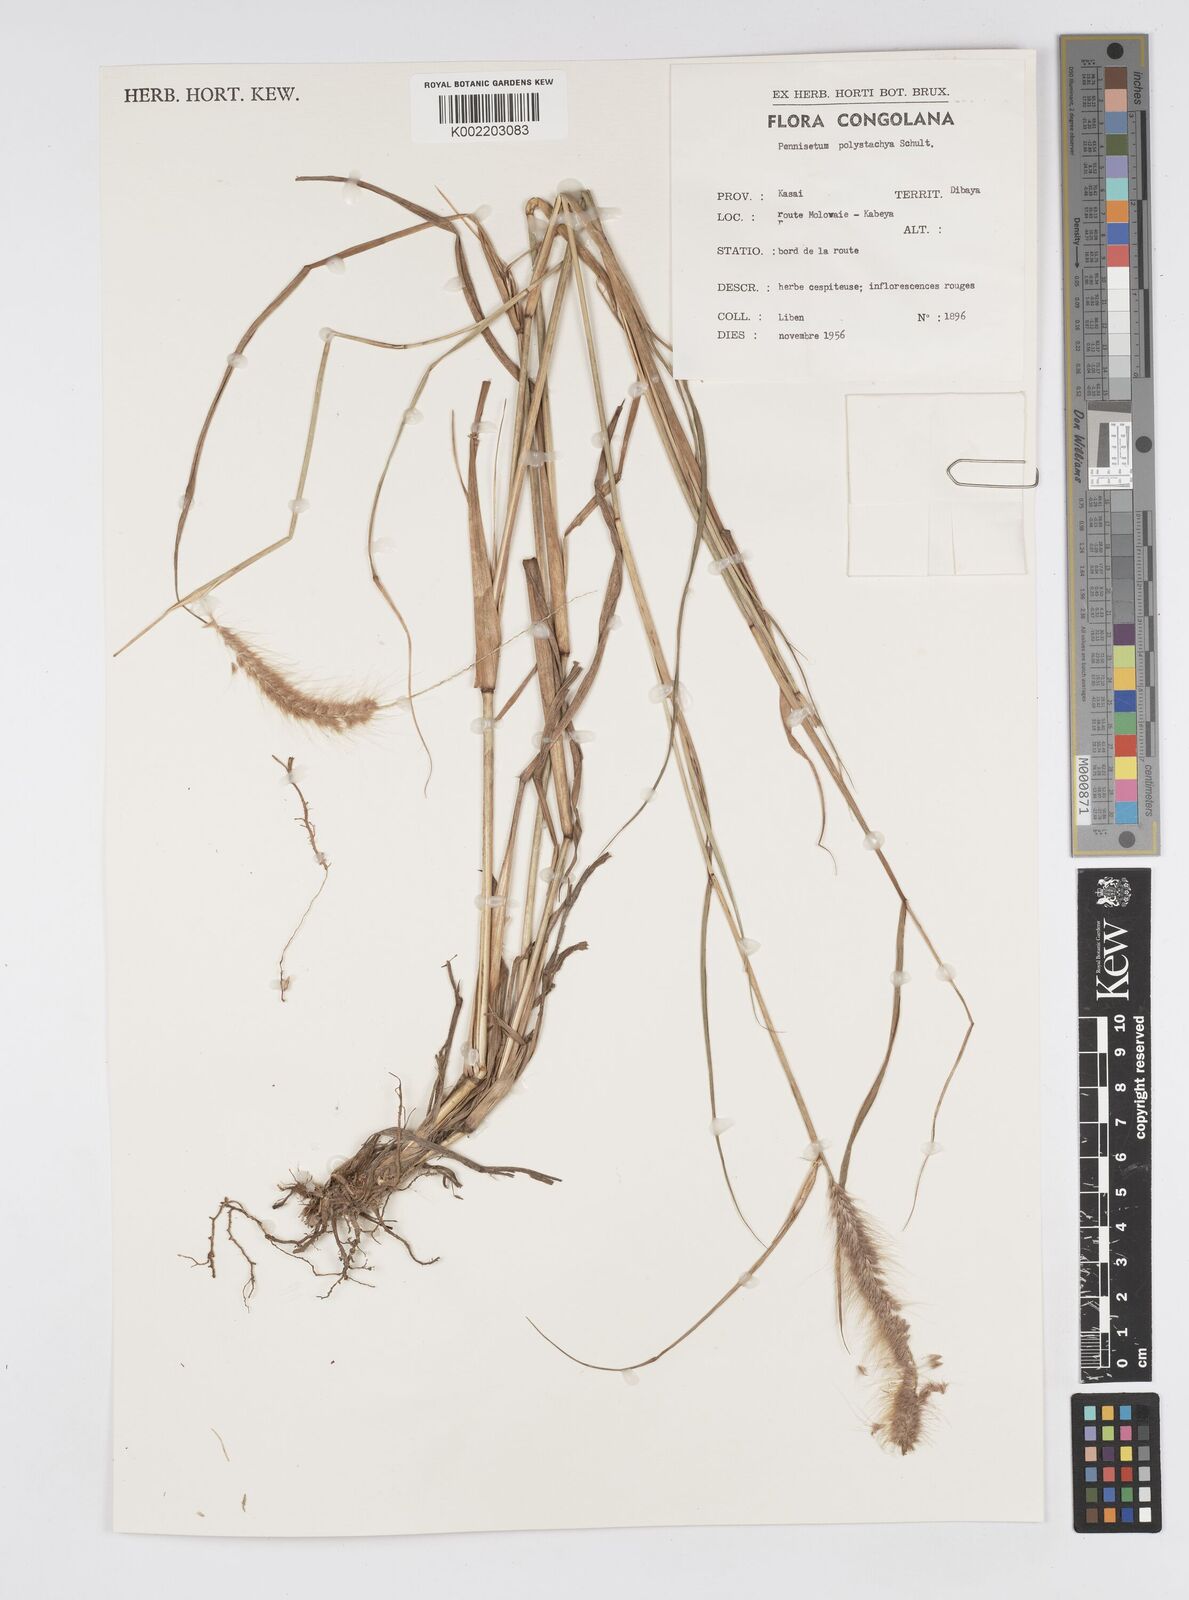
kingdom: Plantae
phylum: Tracheophyta
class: Liliopsida
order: Poales
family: Poaceae
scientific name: Poaceae
